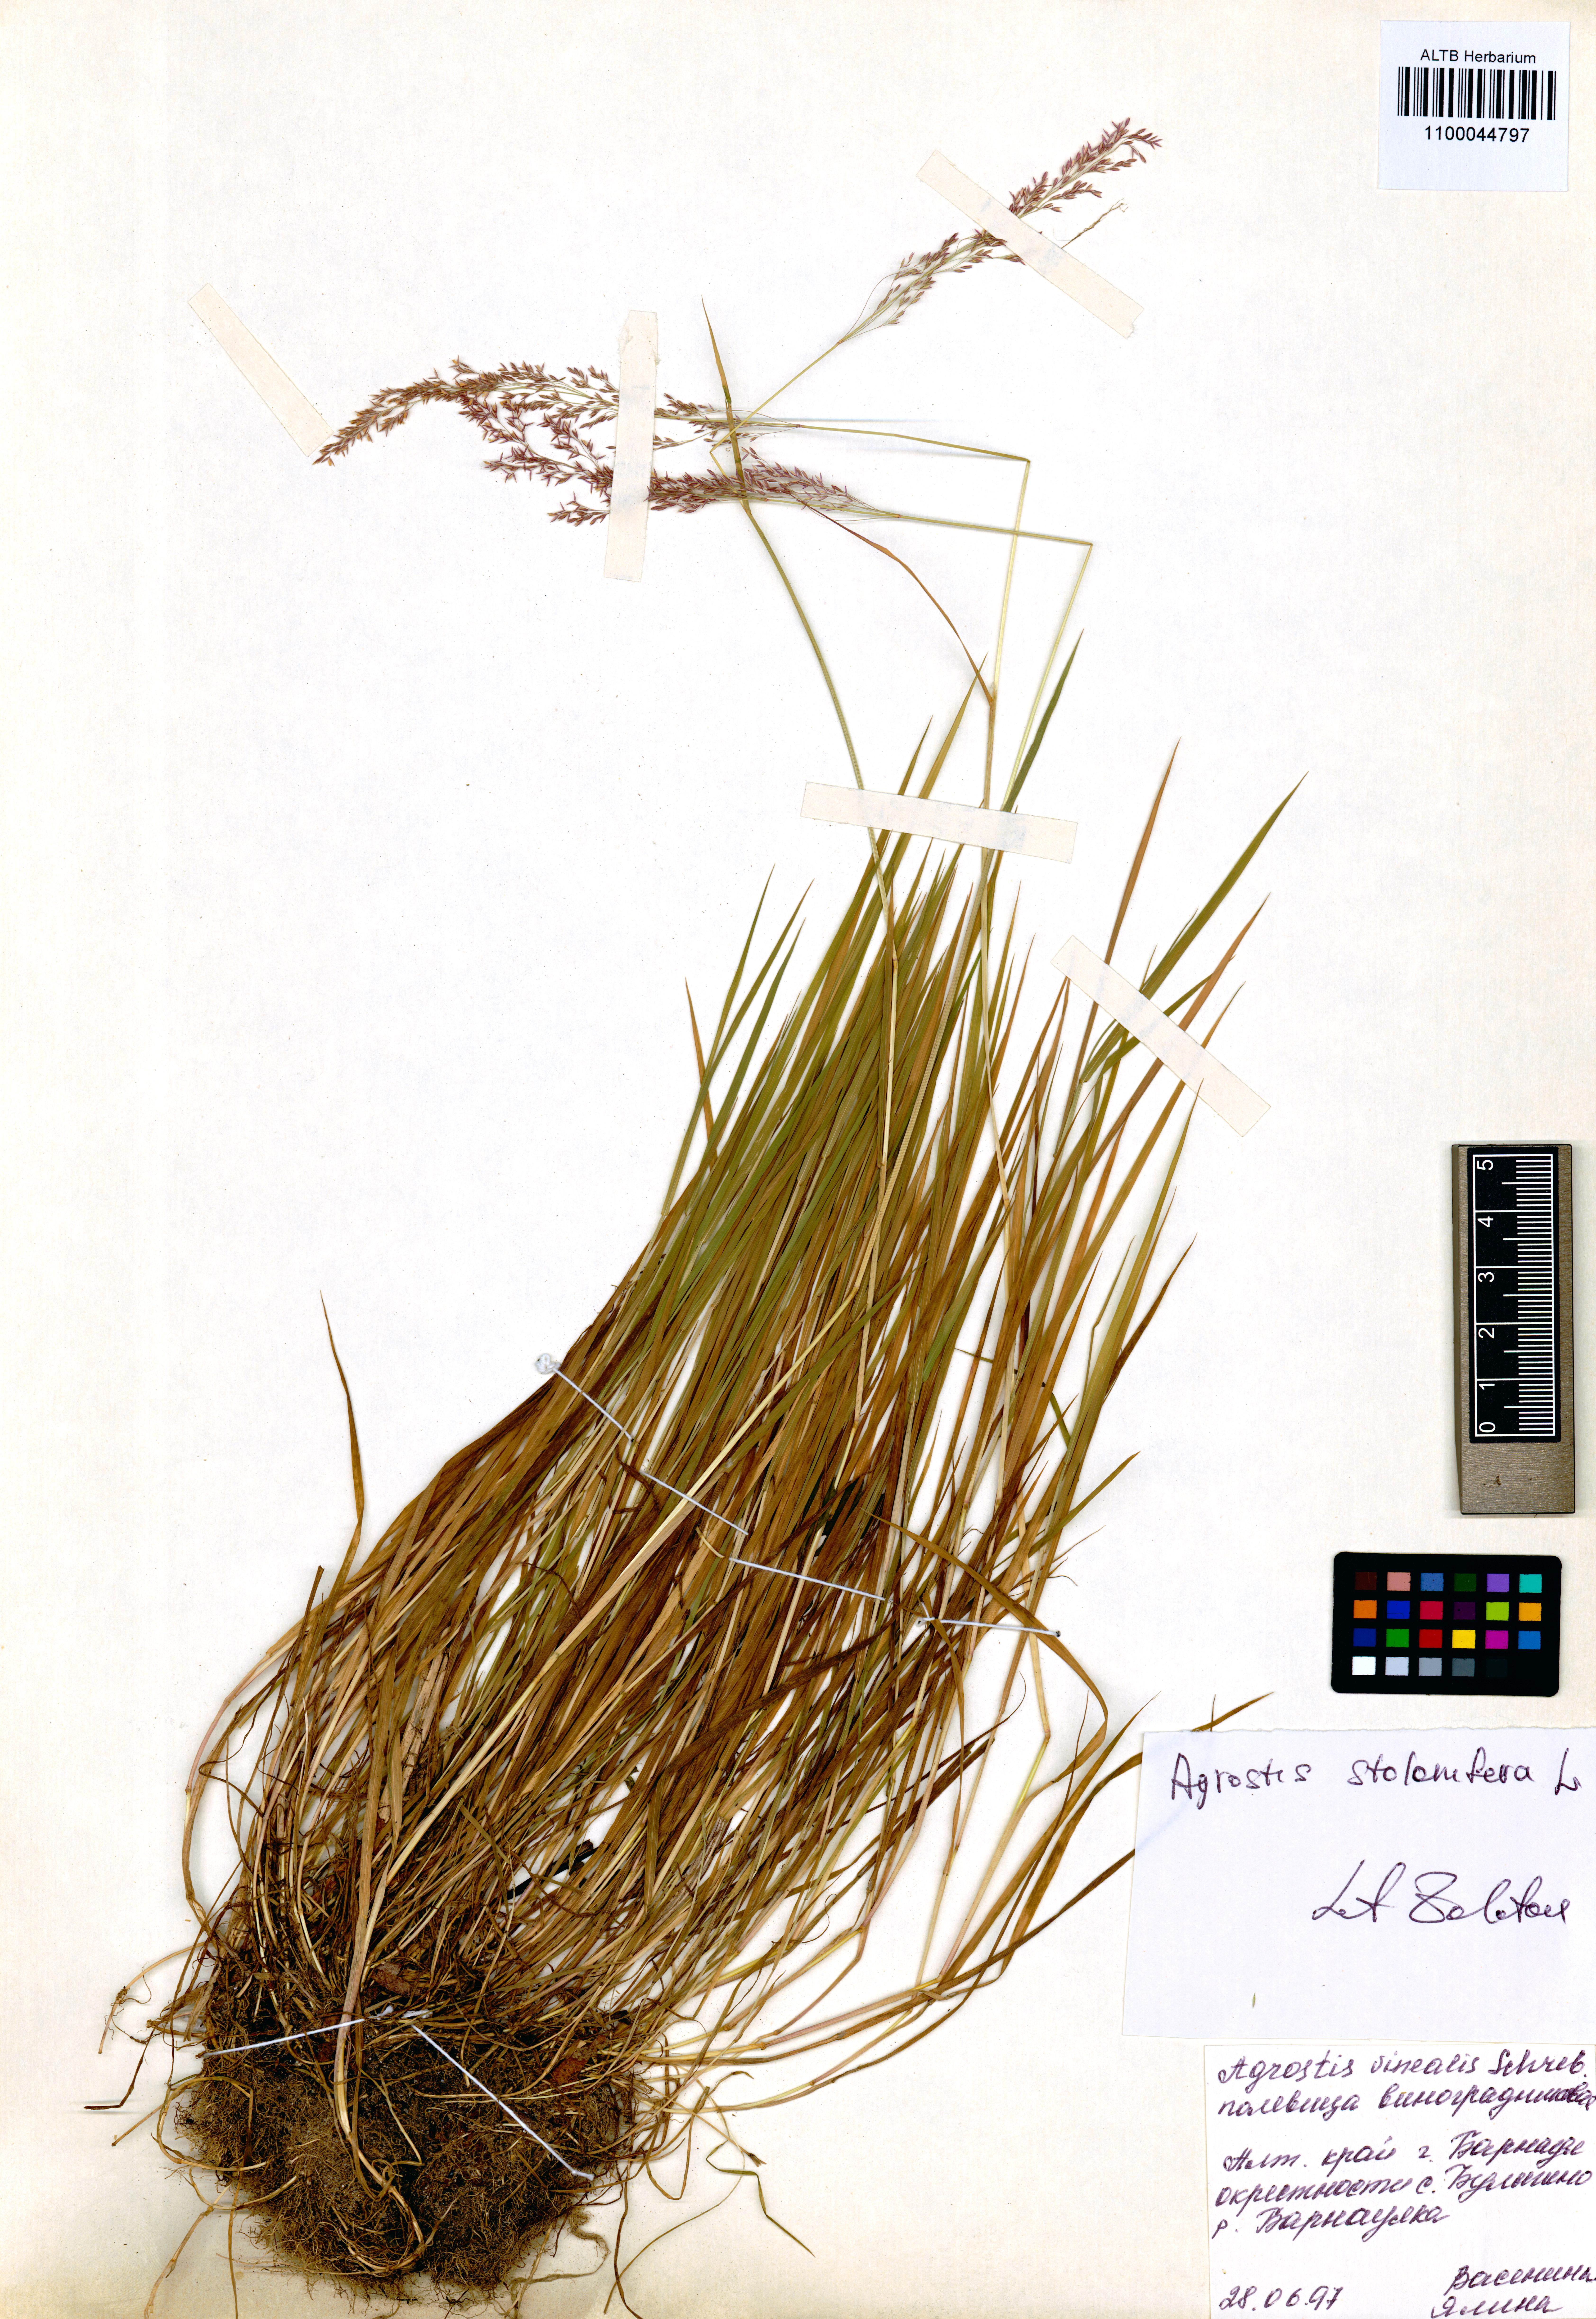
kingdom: Plantae
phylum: Tracheophyta
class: Liliopsida
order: Poales
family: Poaceae
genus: Agrostis
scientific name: Agrostis stolonifera
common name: Creeping bentgrass
